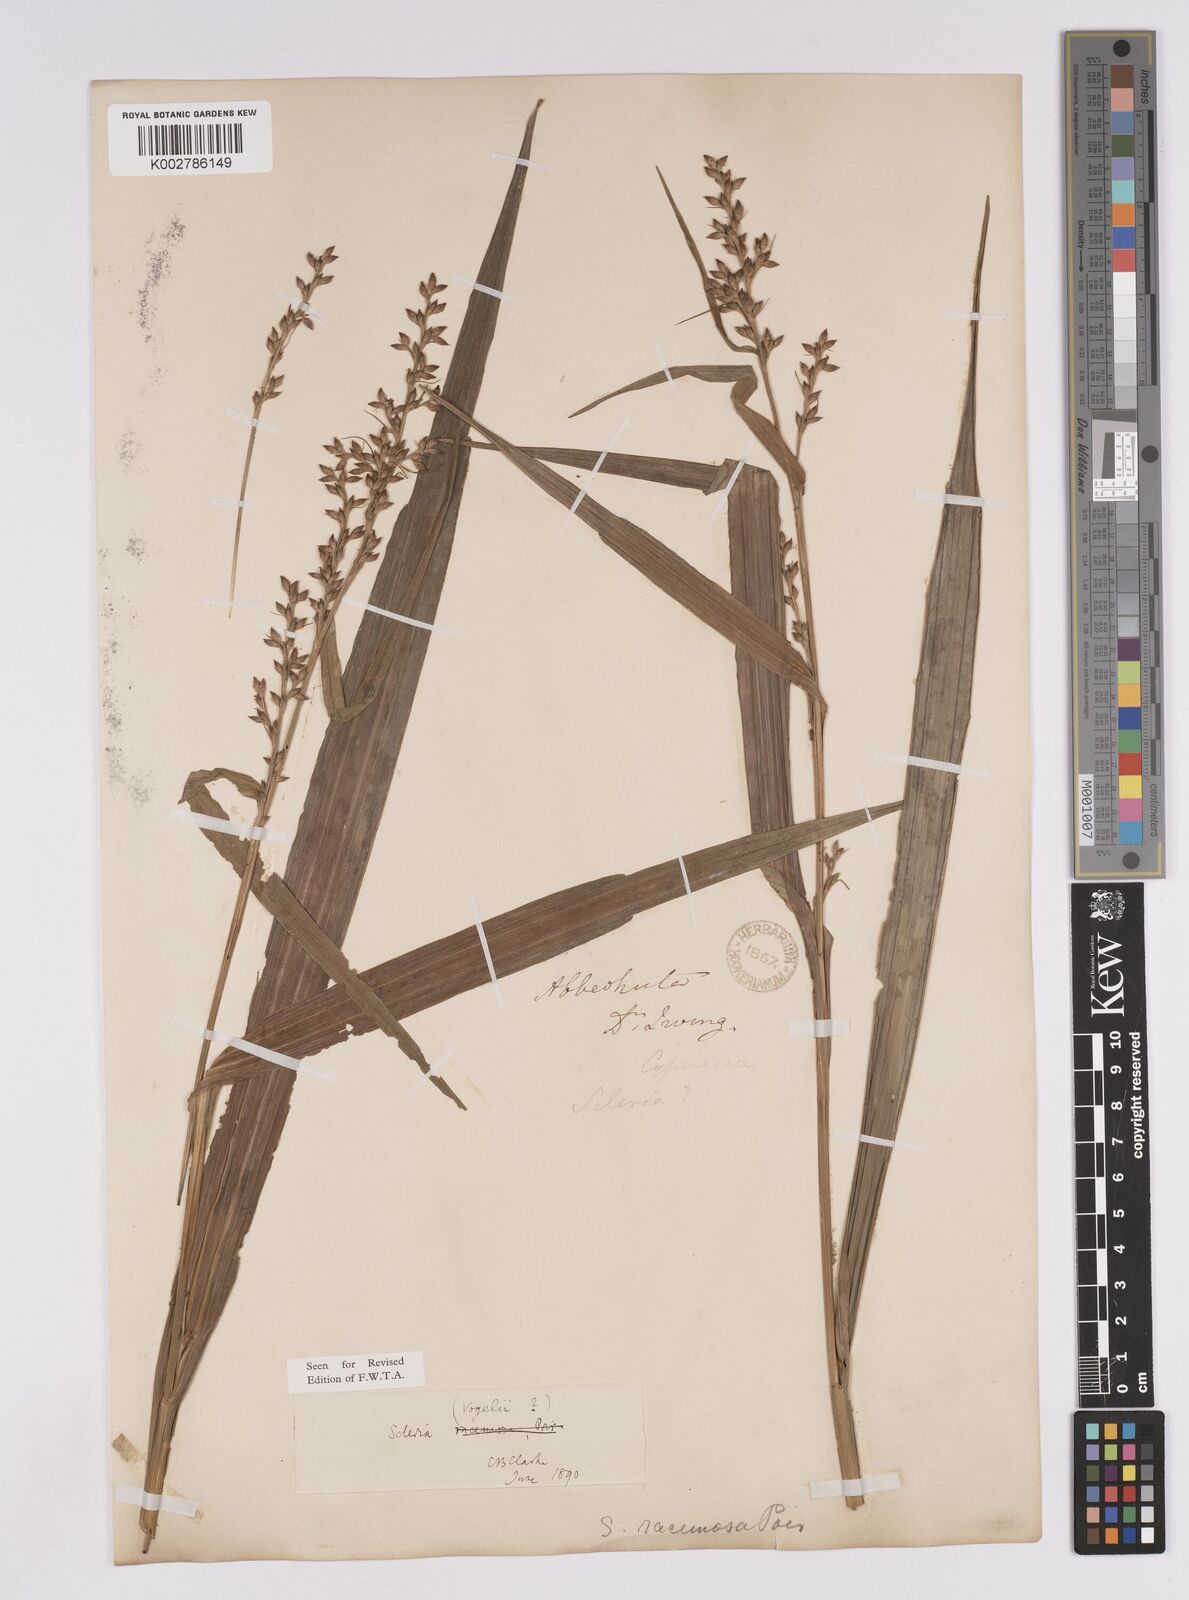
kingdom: Plantae
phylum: Tracheophyta
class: Liliopsida
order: Poales
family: Cyperaceae
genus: Scleria
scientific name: Scleria vogelii
